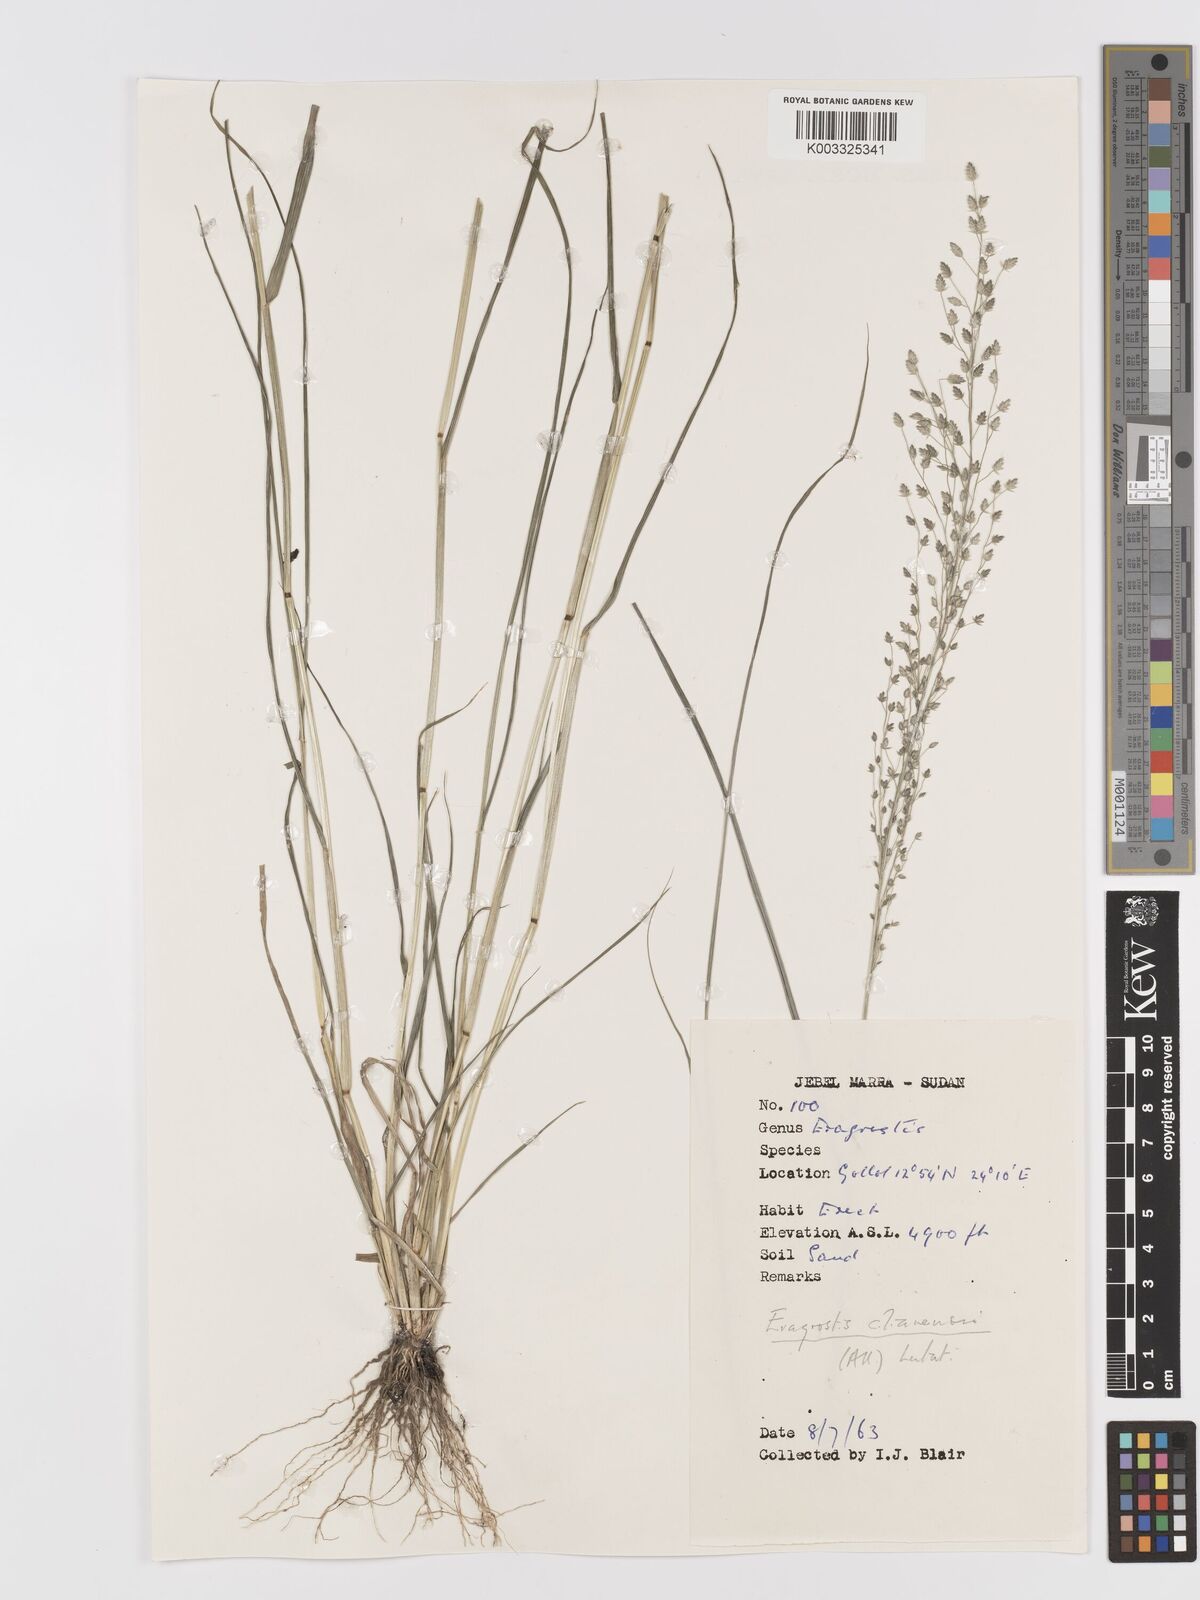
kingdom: Plantae
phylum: Tracheophyta
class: Liliopsida
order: Poales
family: Poaceae
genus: Eragrostis
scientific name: Eragrostis cilianensis
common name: Stinkgrass
